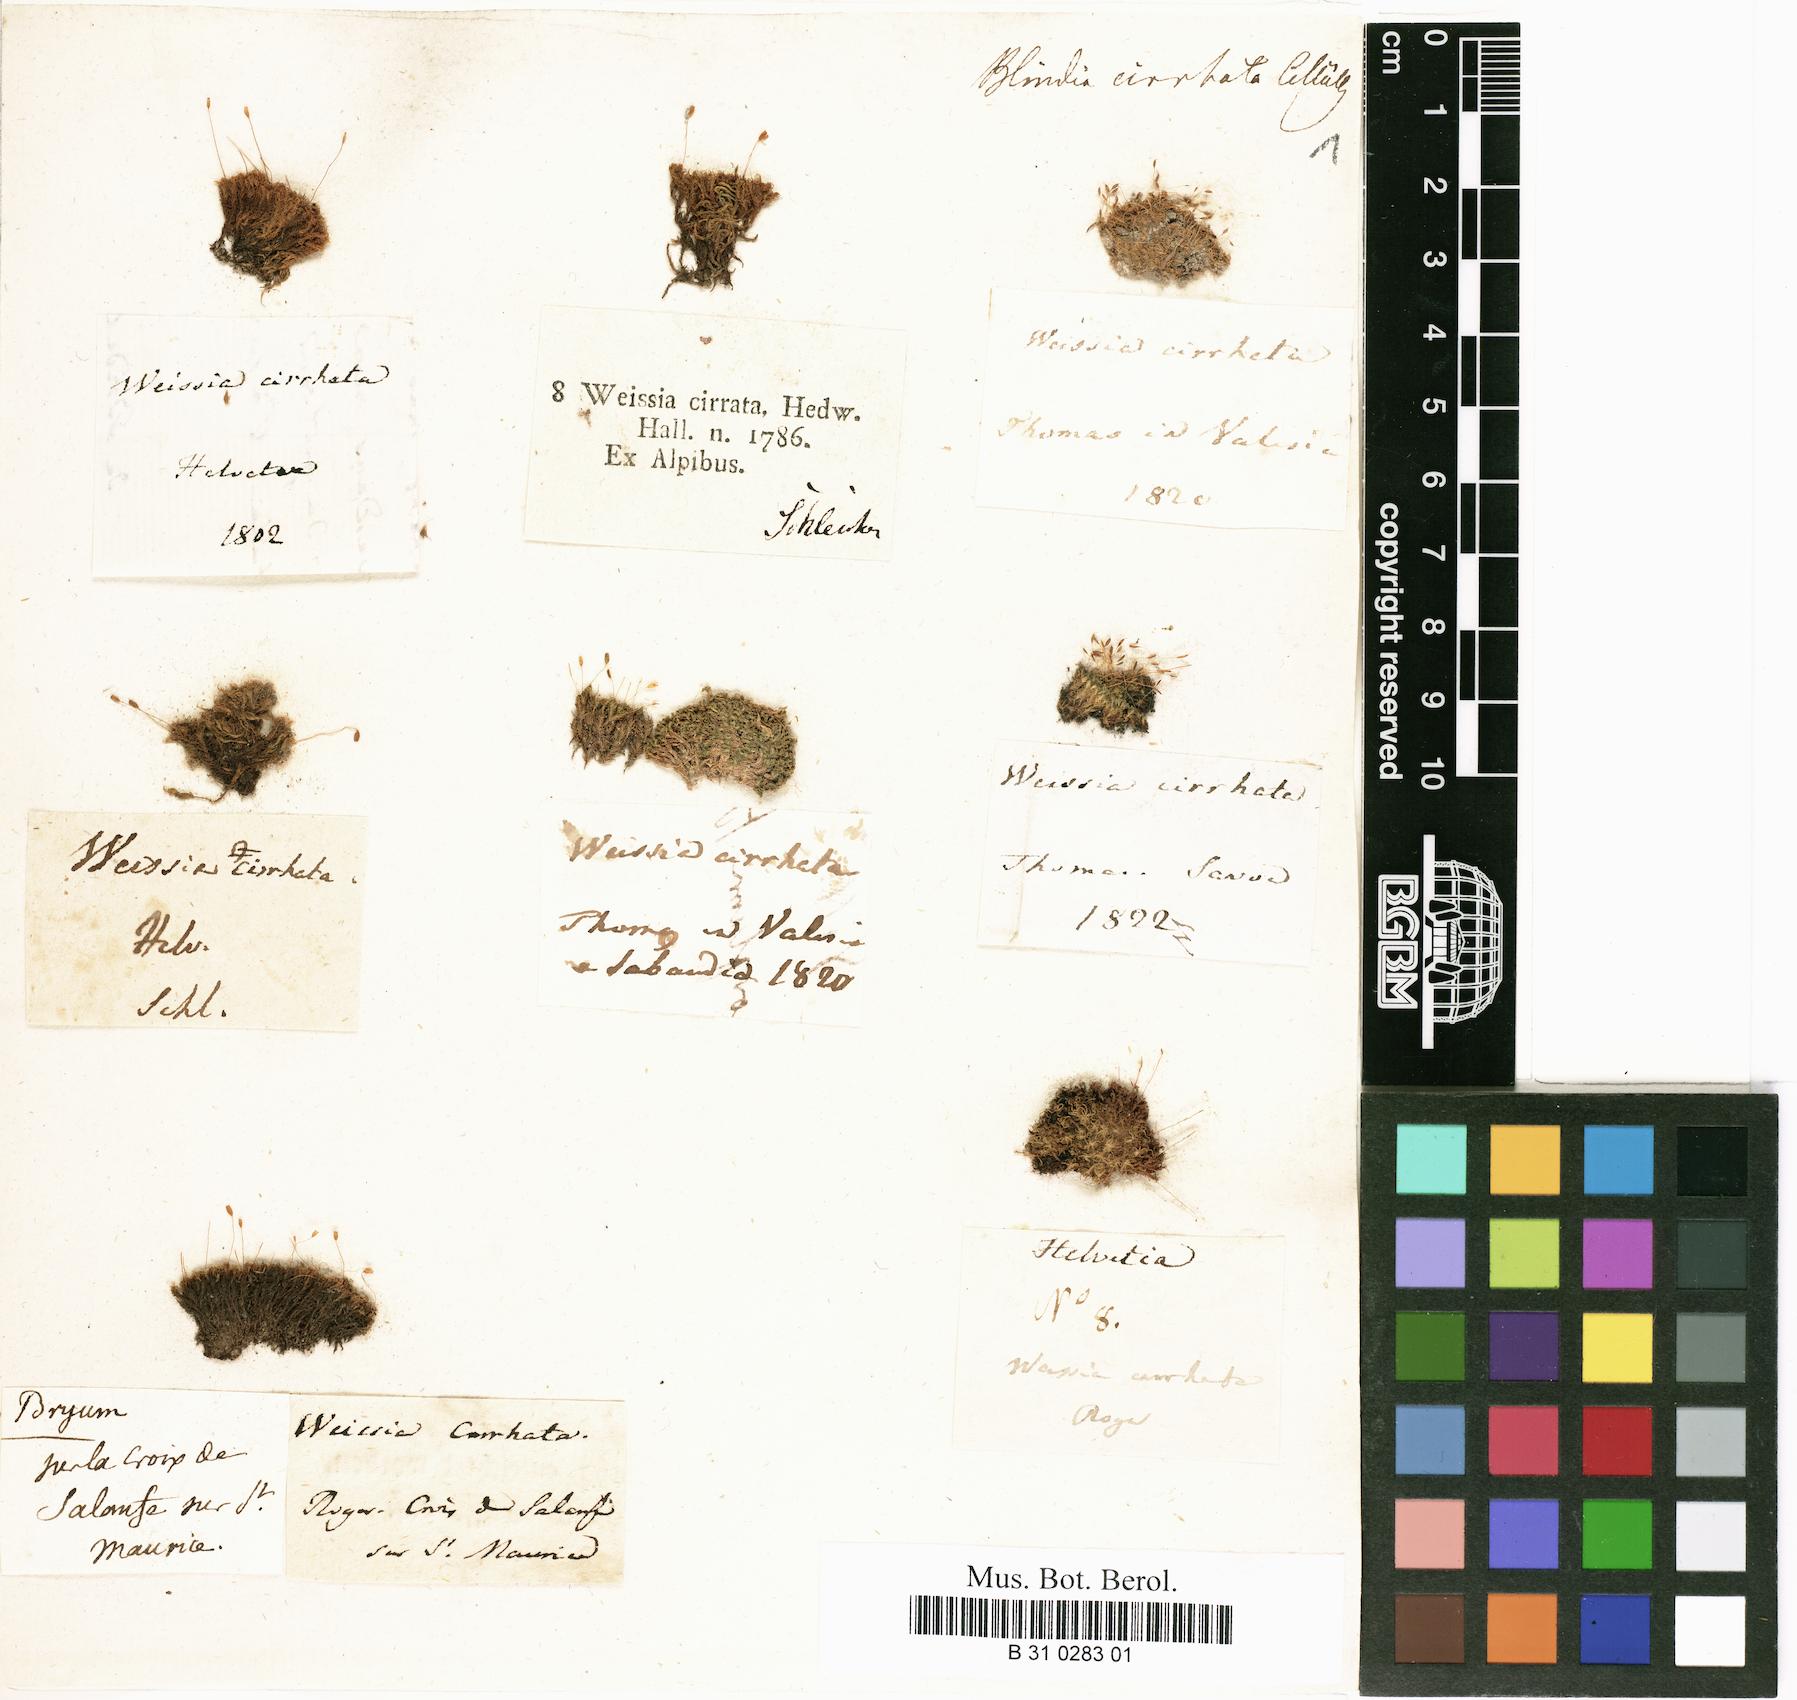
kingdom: Plantae
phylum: Bryophyta
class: Bryopsida
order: Dicranales
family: Rhabdoweisiaceae
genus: Dicranoweisia
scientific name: Dicranoweisia cirrata
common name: Common pincushion
